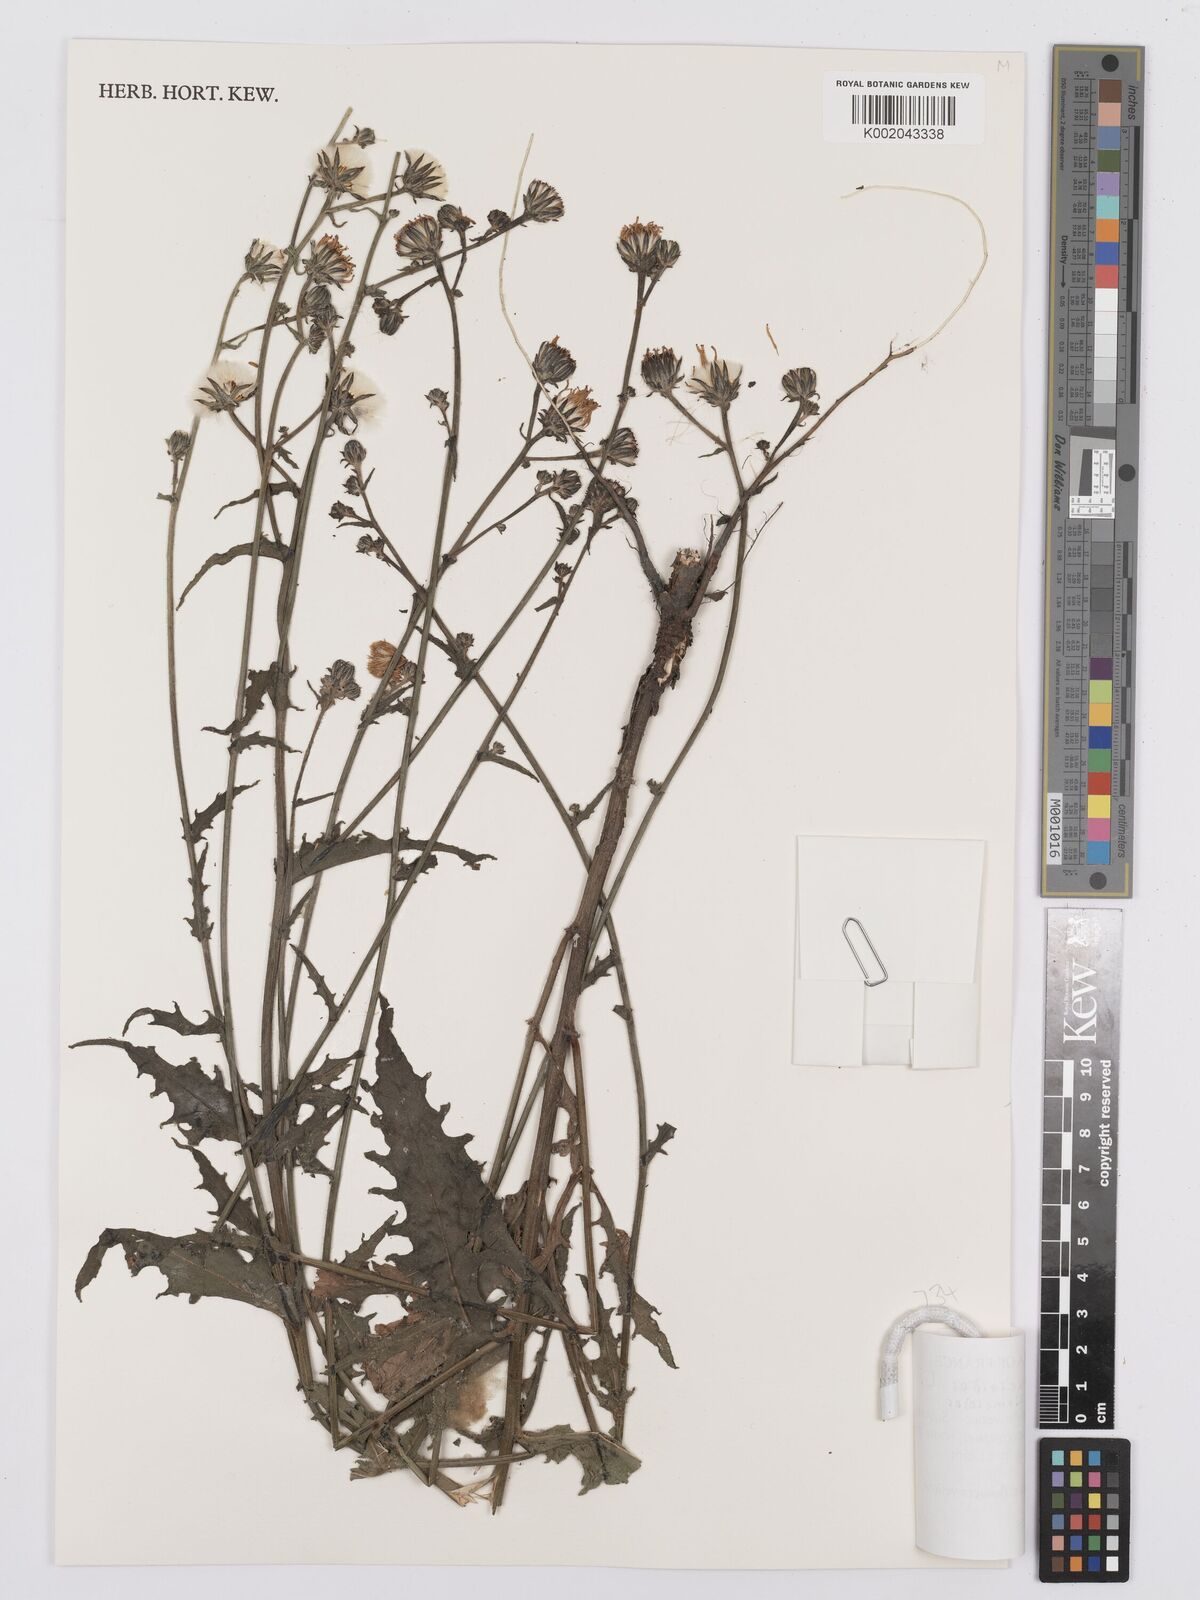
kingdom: Plantae
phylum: Tracheophyta
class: Magnoliopsida
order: Asterales
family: Asteraceae
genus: Picris
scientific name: Picris hieracioides
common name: Hawkweed oxtongue
